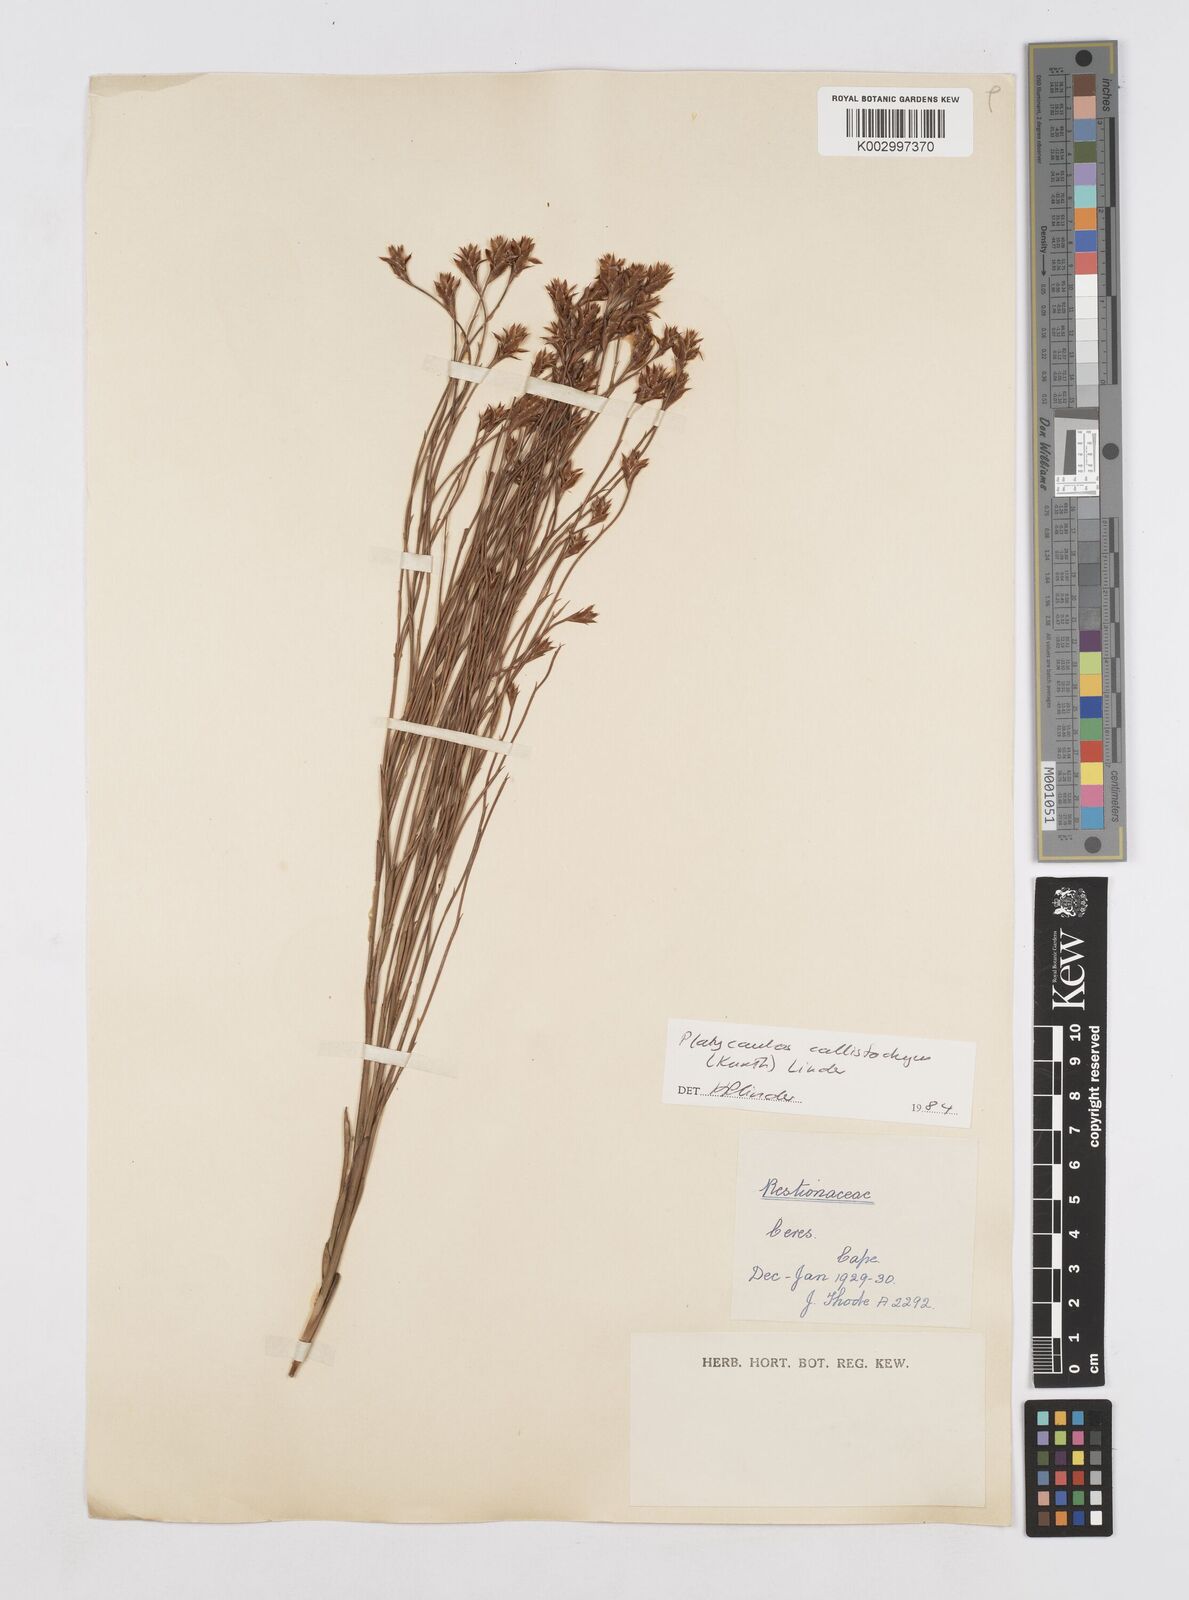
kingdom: Plantae
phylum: Tracheophyta
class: Liliopsida
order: Poales
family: Restionaceae
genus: Platycaulos
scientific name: Platycaulos callistachyus
